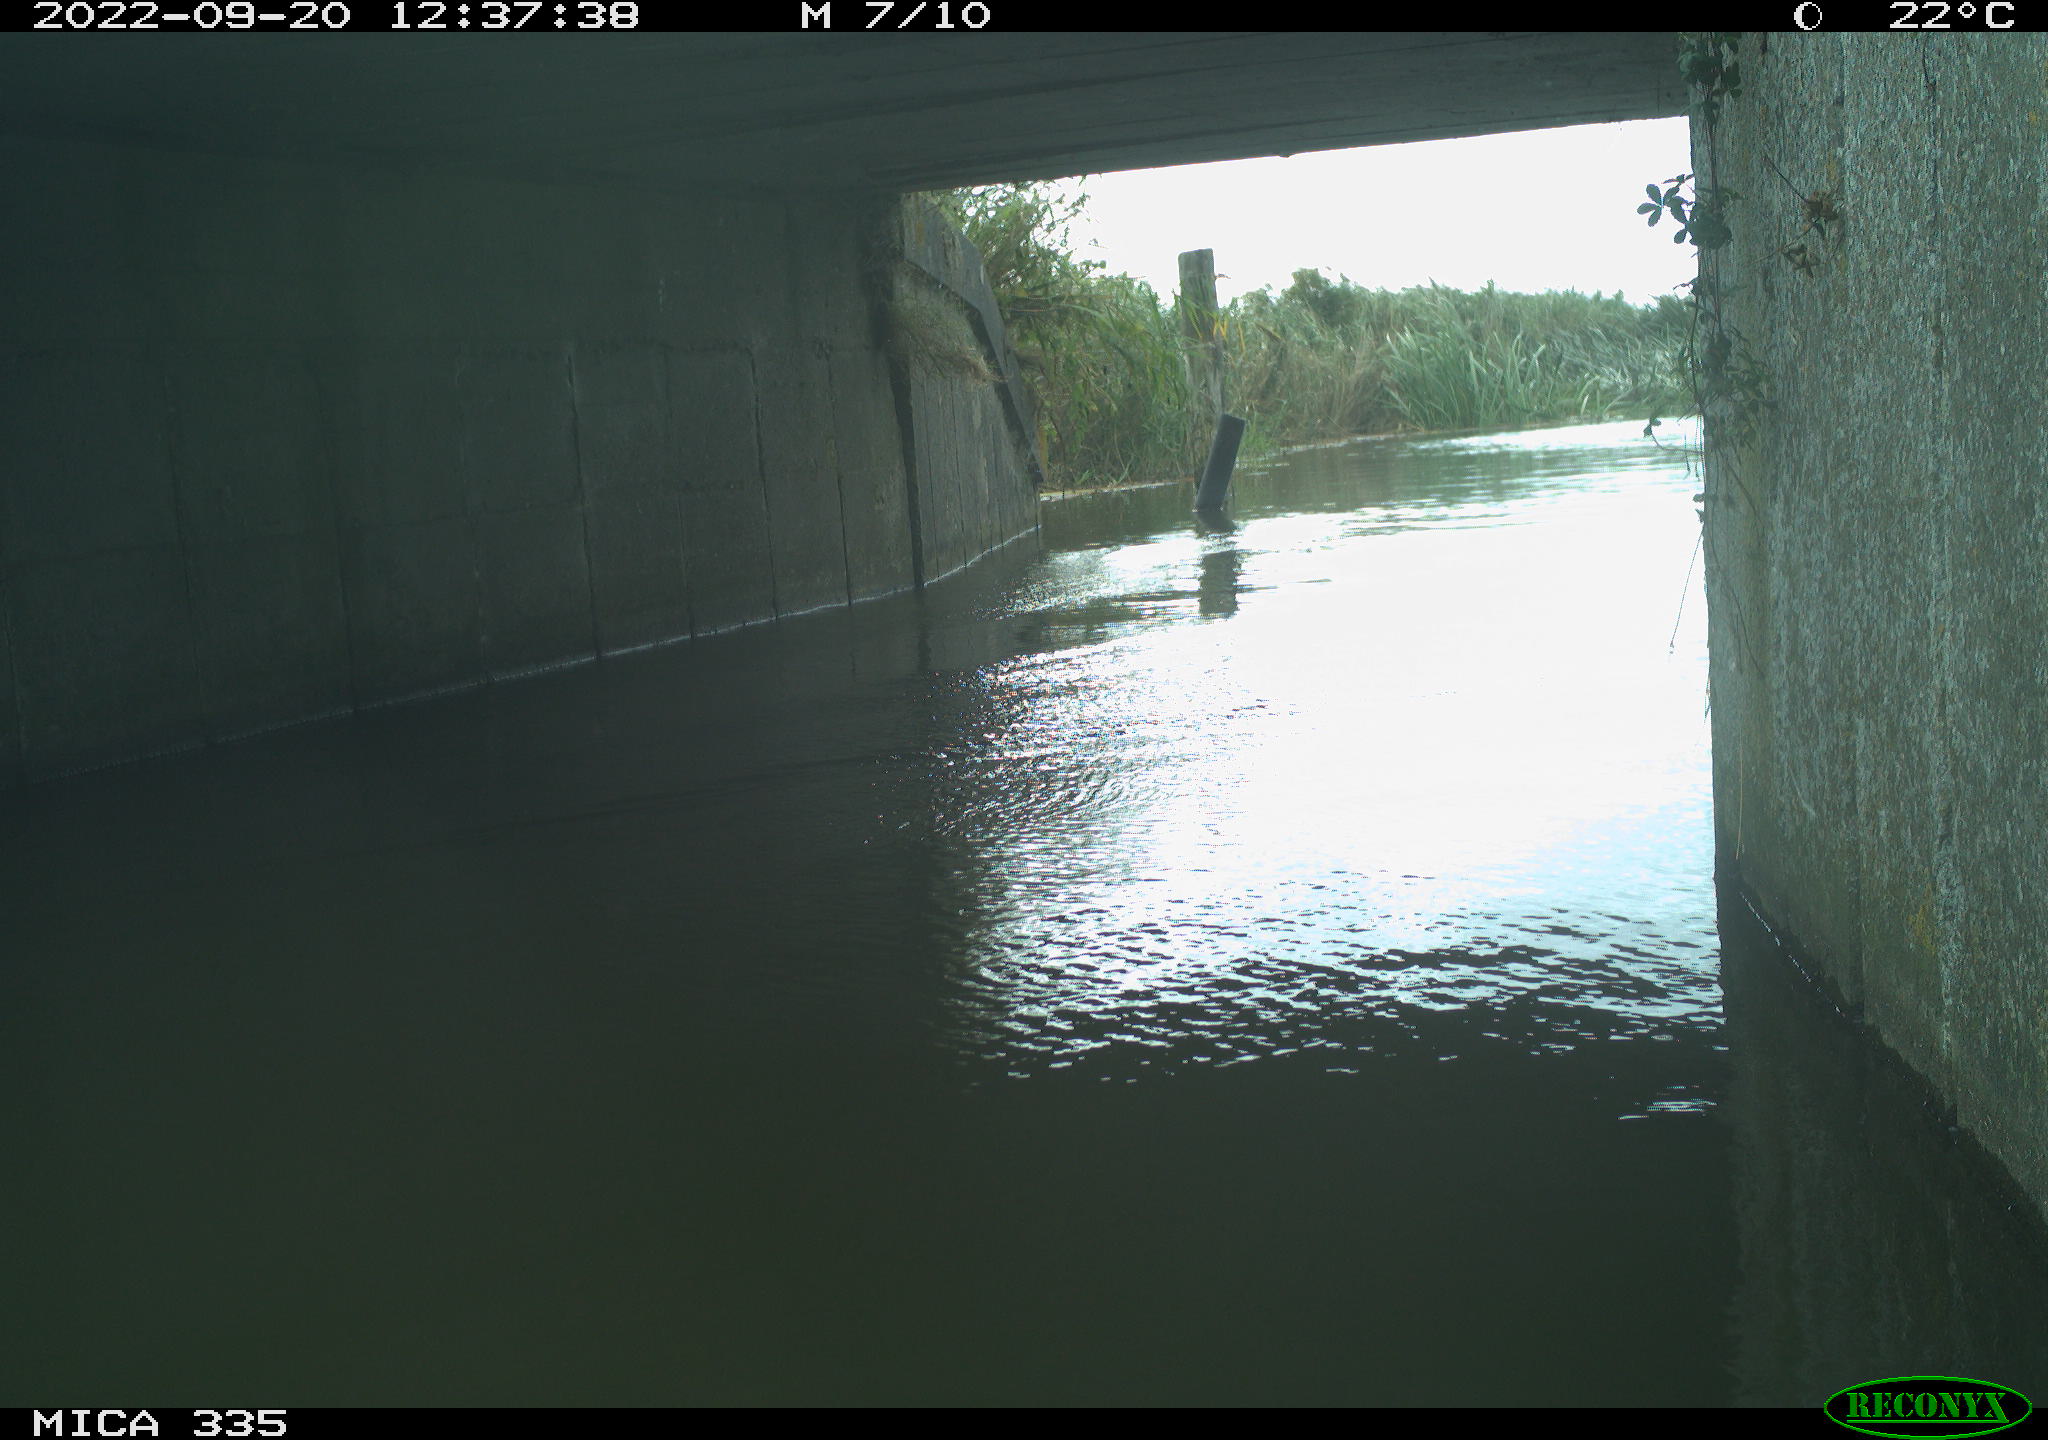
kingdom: Animalia
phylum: Chordata
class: Aves
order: Anseriformes
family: Anatidae
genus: Anas
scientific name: Anas
